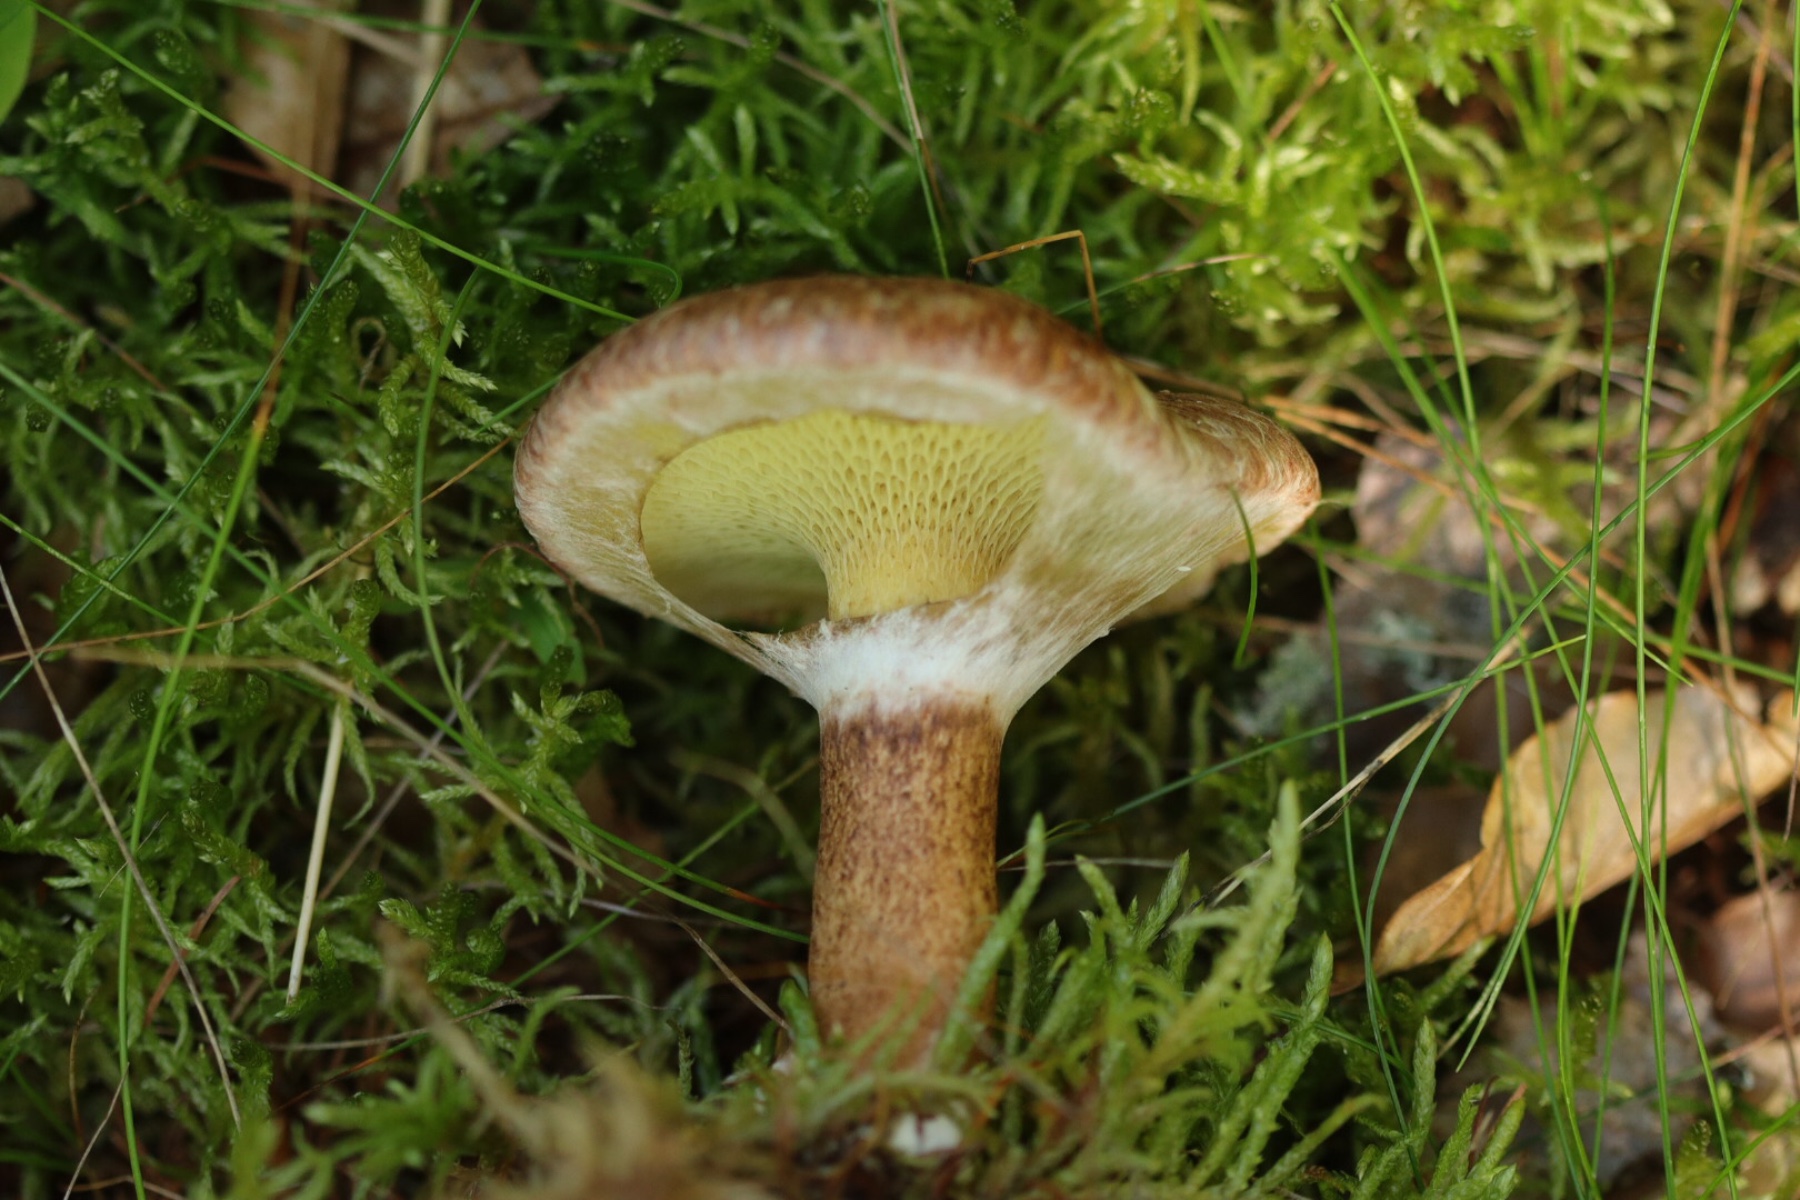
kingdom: Fungi
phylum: Basidiomycota
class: Agaricomycetes
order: Boletales
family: Suillaceae
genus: Suillus
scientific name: Suillus cavipes
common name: hulstokket slimrørhat
